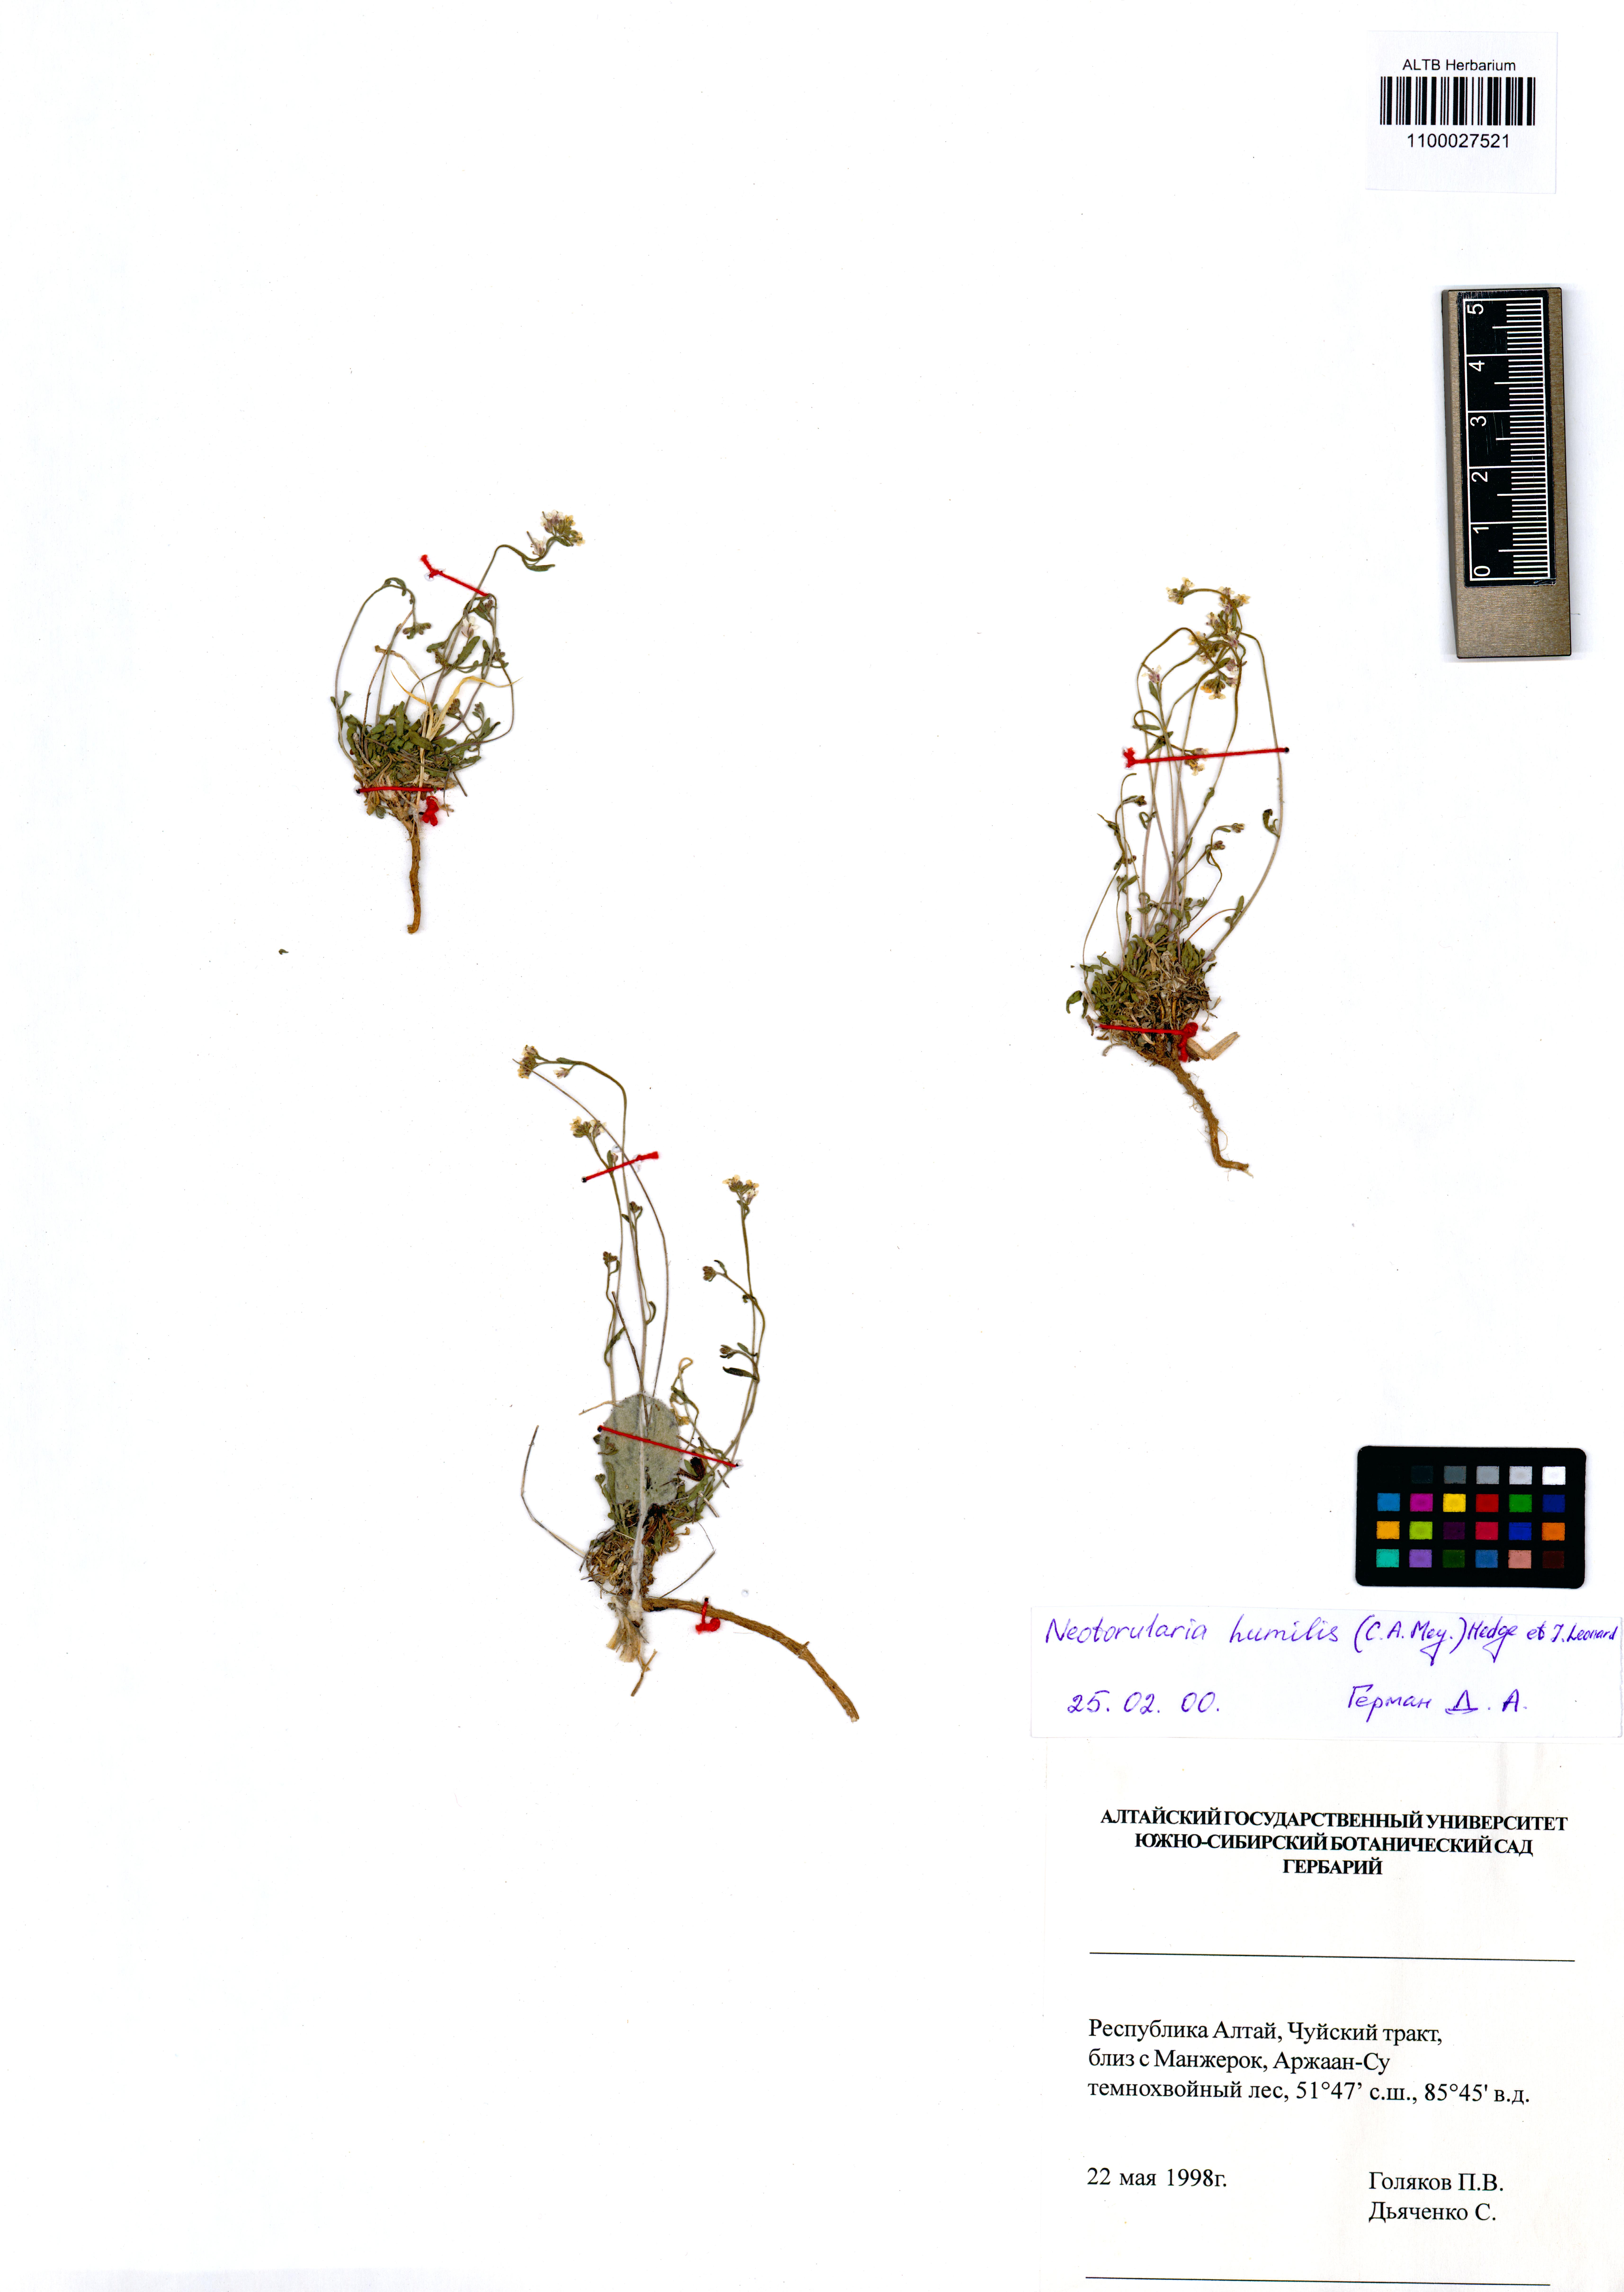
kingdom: Plantae
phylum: Tracheophyta
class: Magnoliopsida
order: Brassicales
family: Brassicaceae
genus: Braya
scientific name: Braya humilis
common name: Alpine northern rockcress
